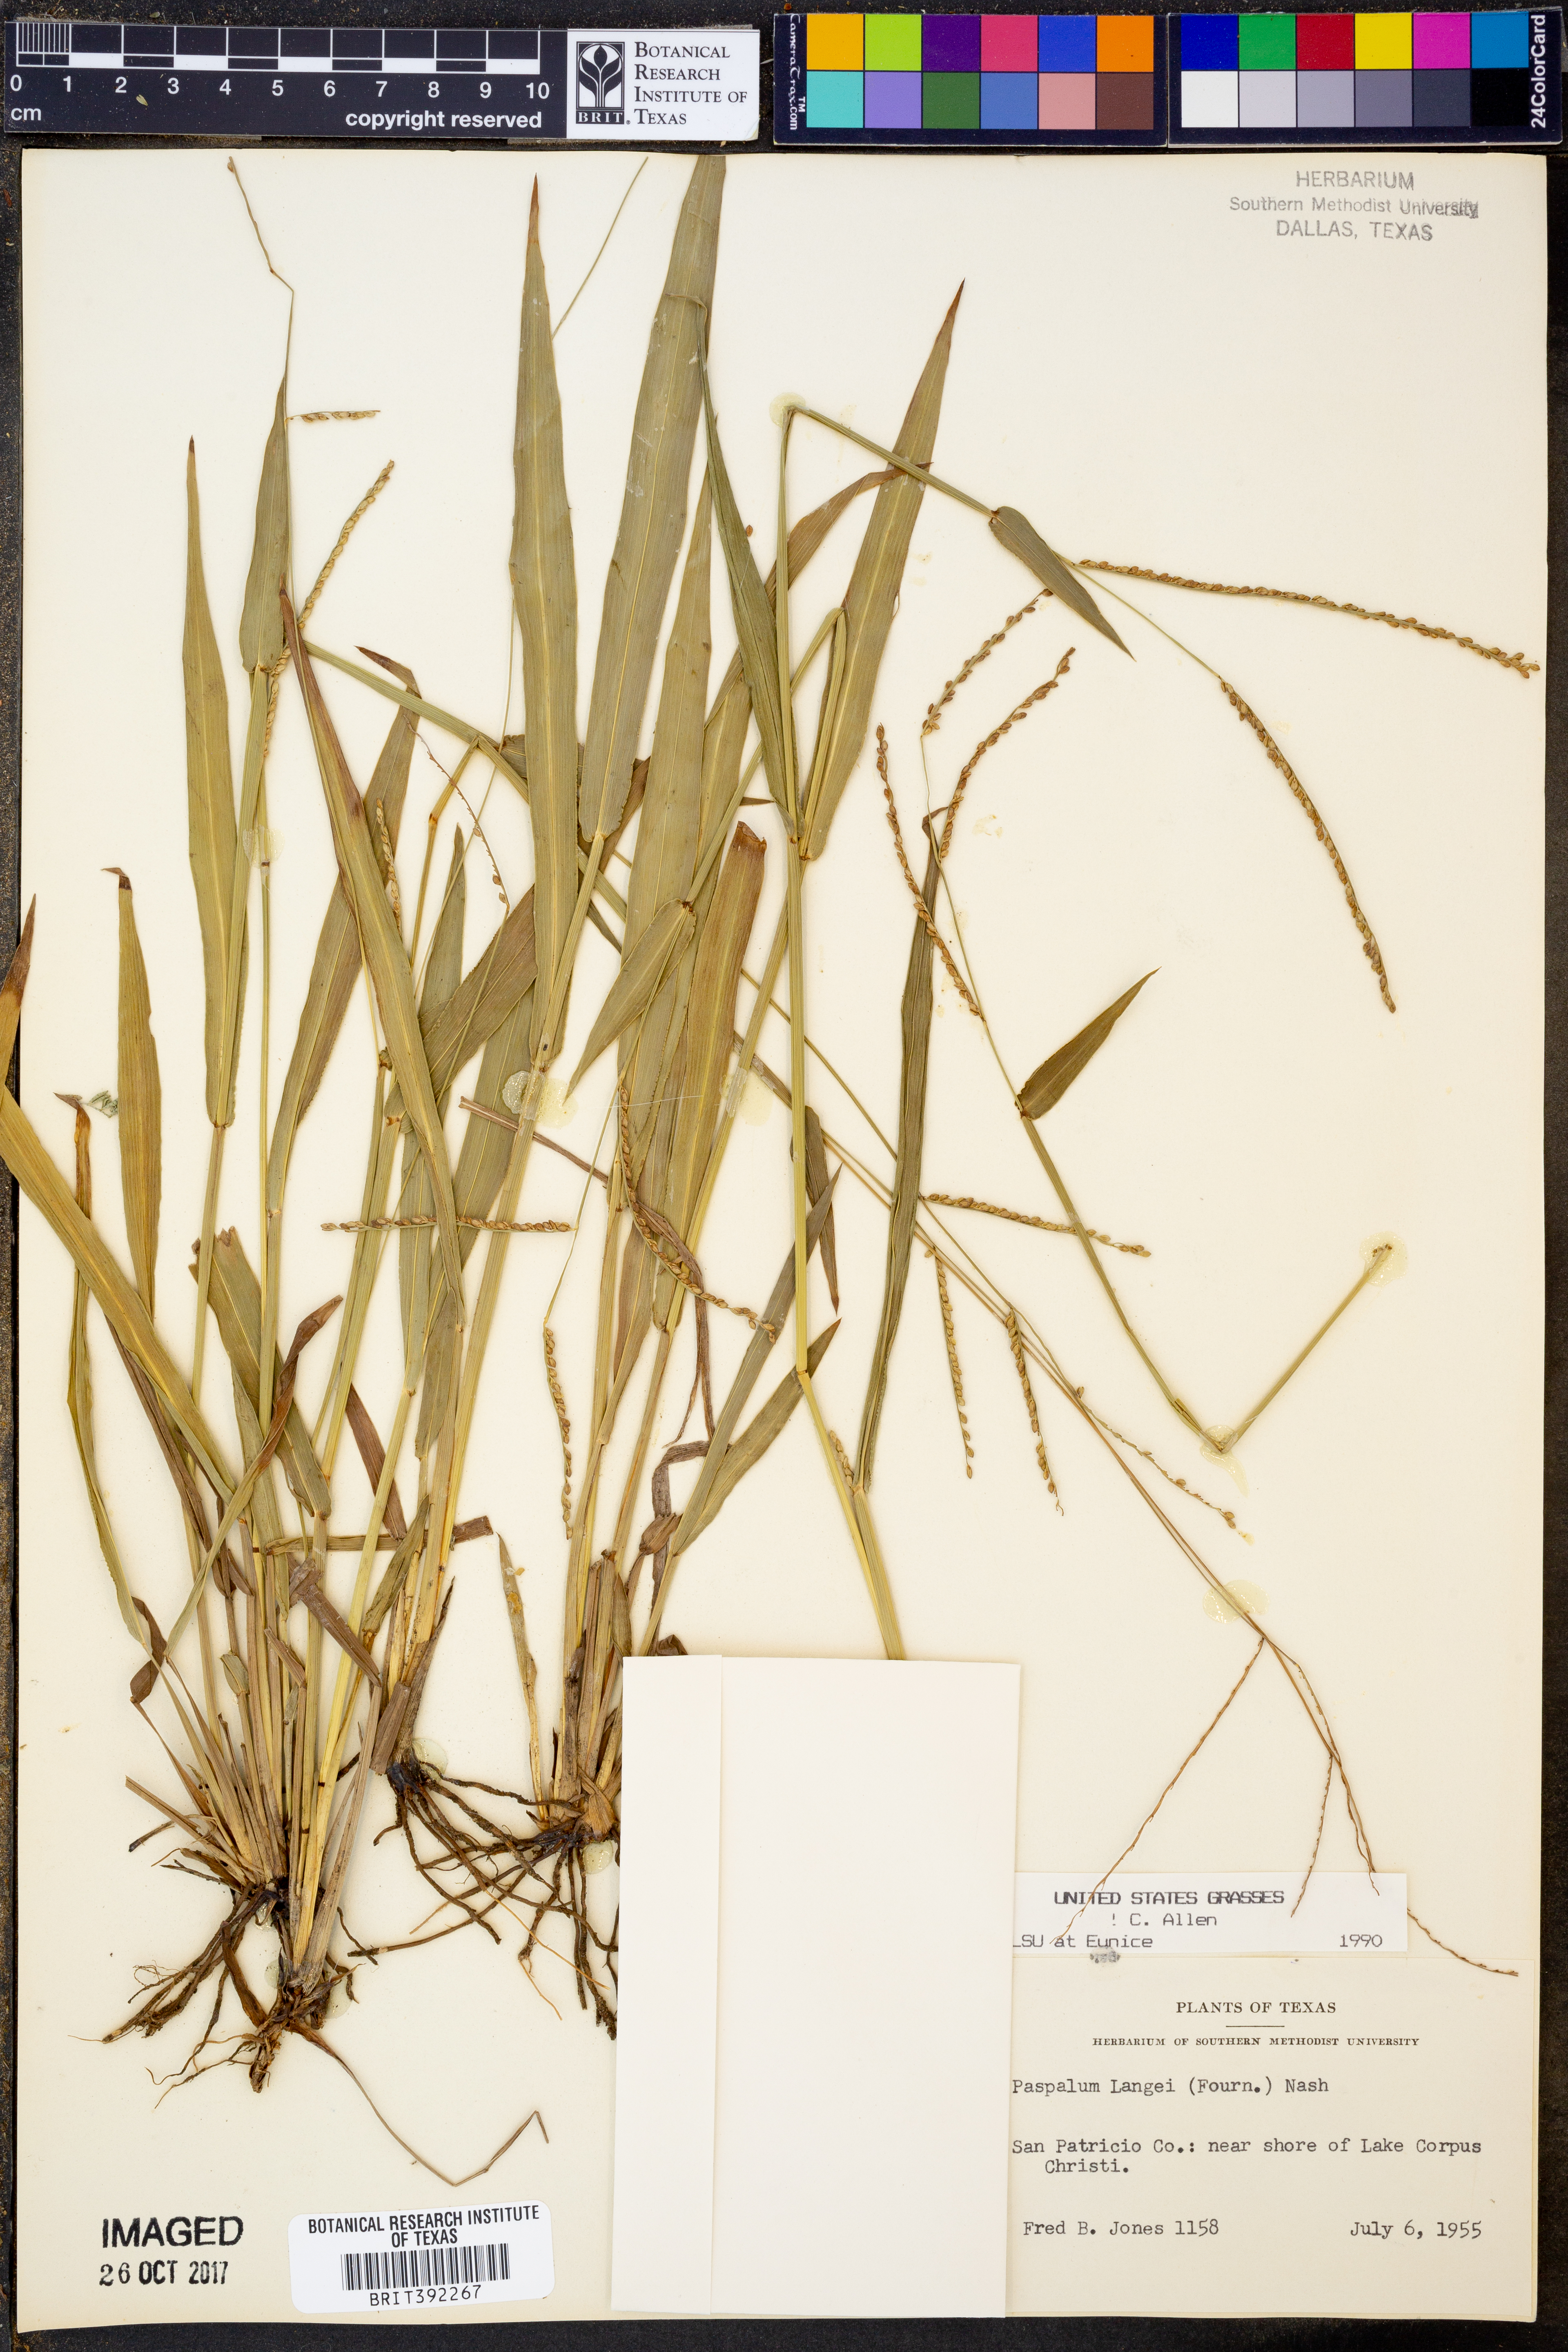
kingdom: Plantae
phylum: Tracheophyta
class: Liliopsida
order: Poales
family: Poaceae
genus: Paspalum
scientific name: Paspalum langei
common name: Rusty-seed paspalum
